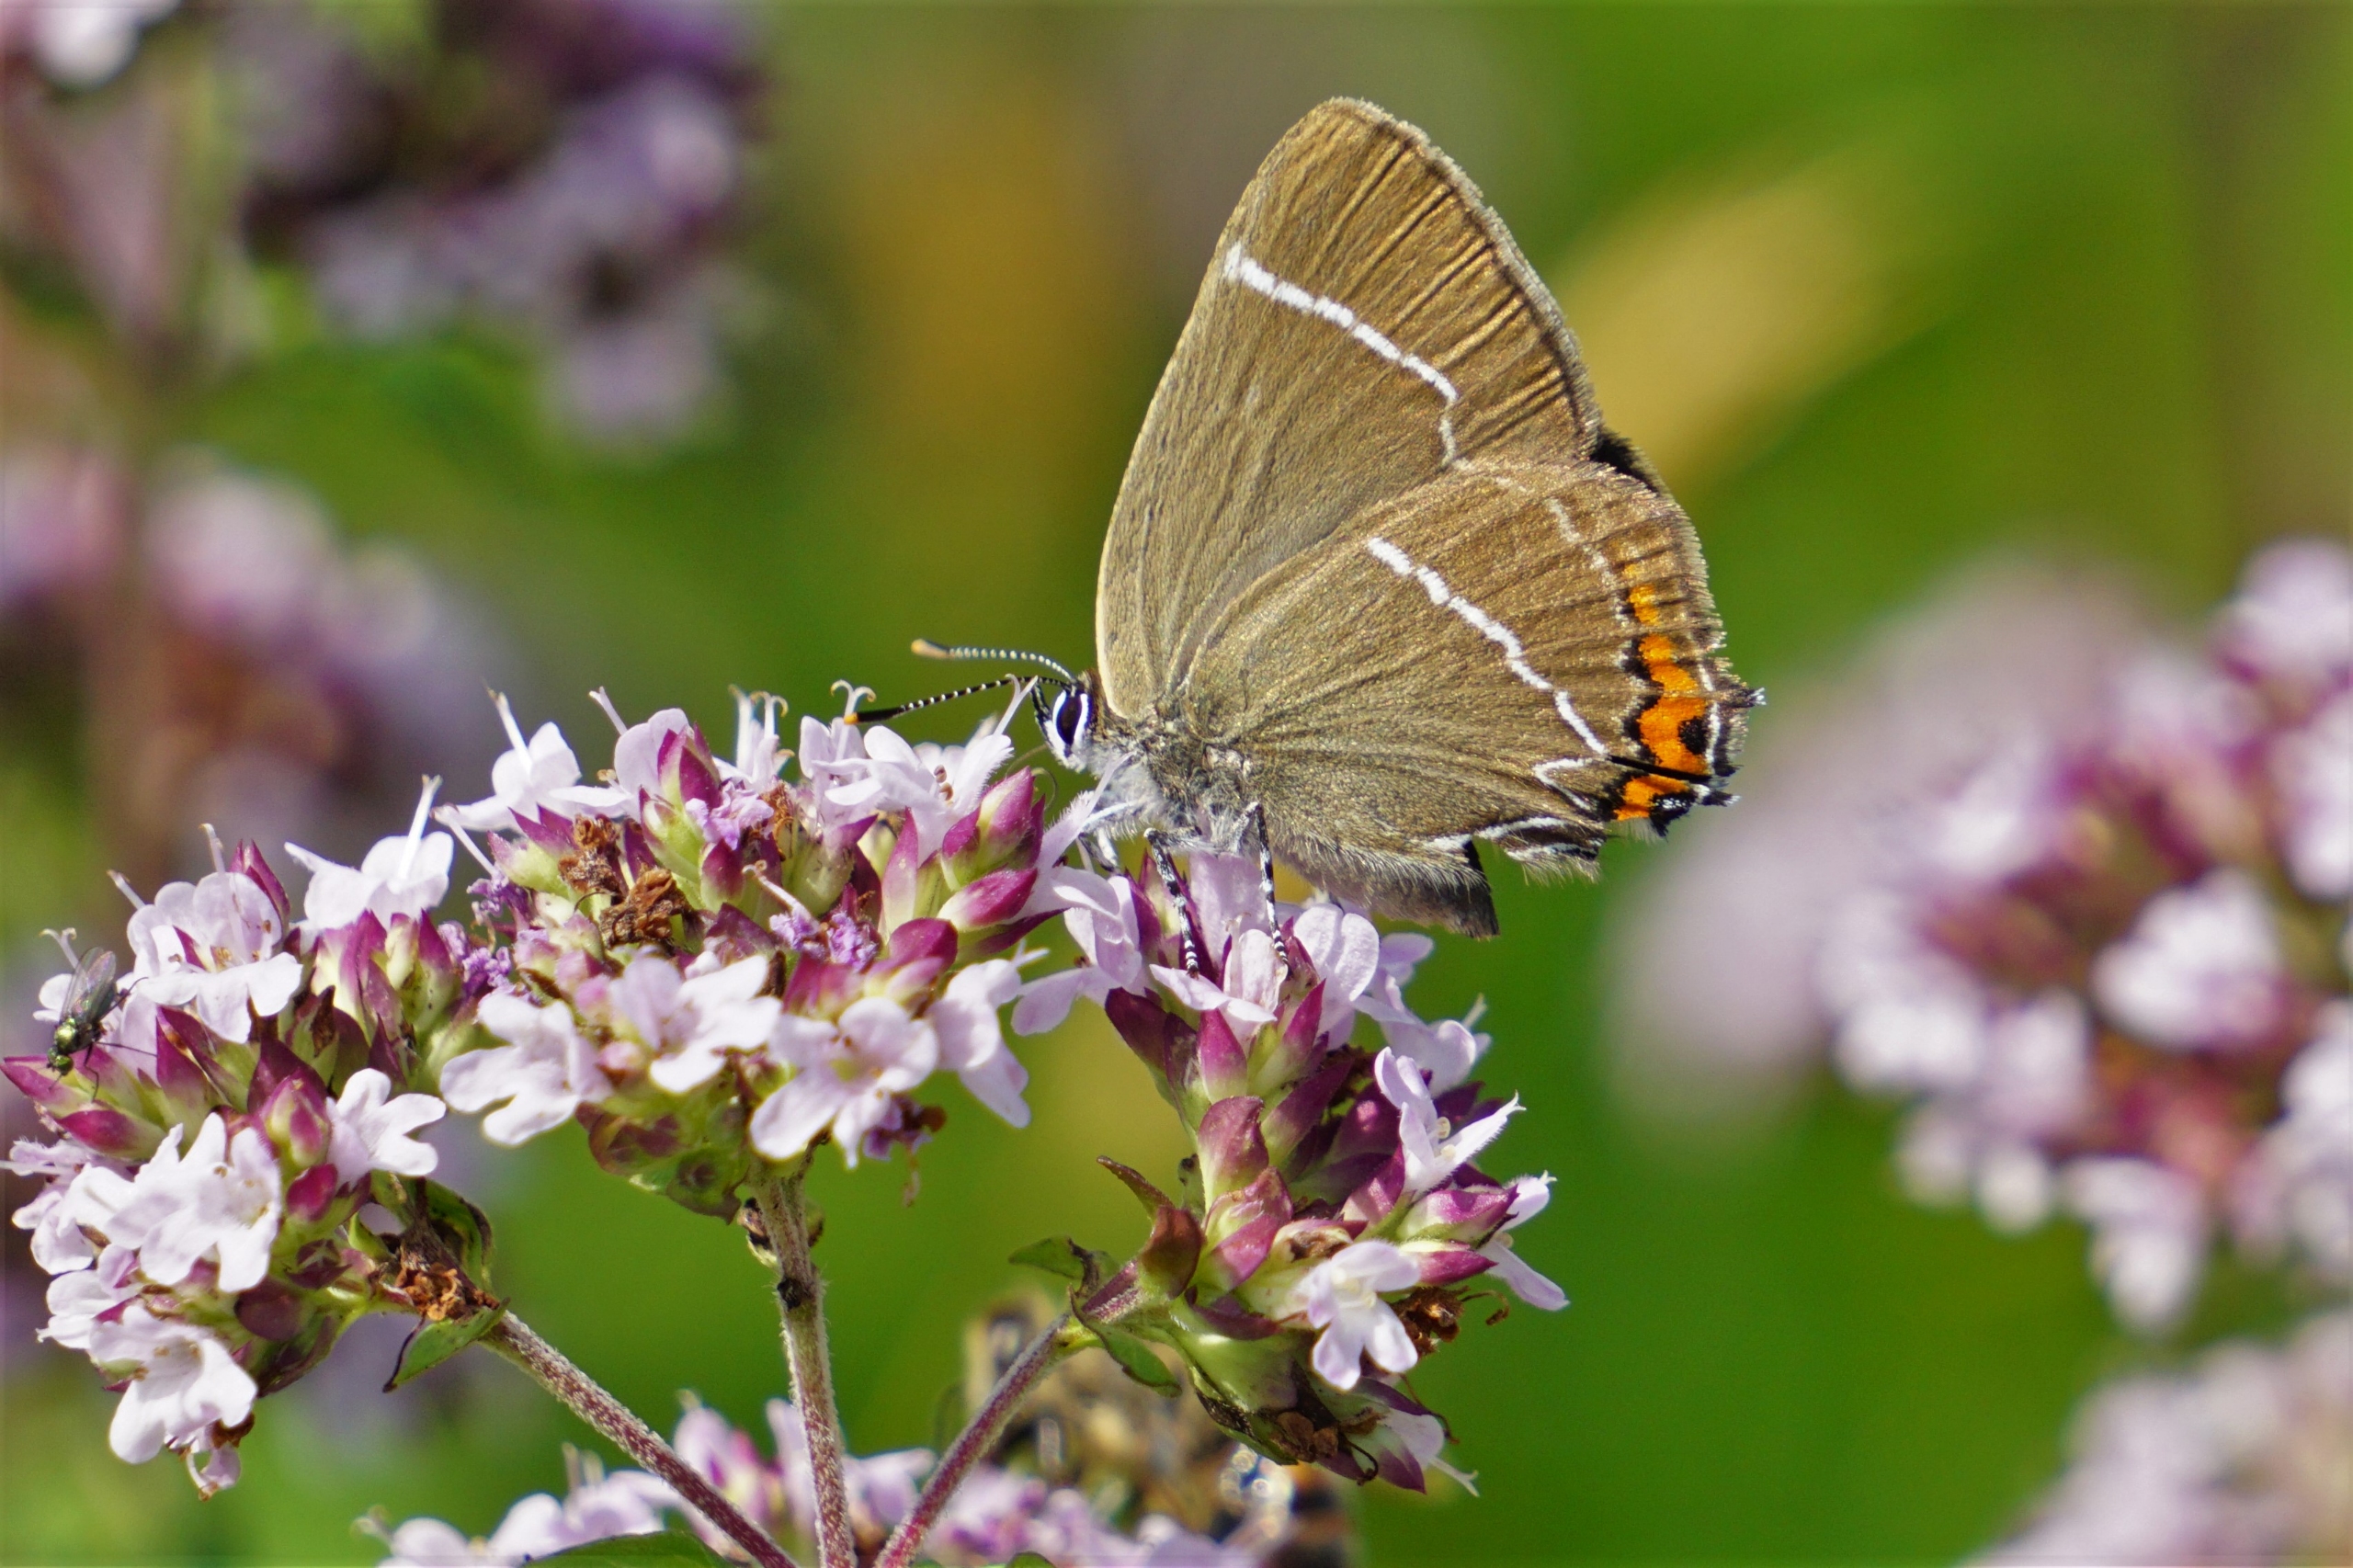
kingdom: Animalia
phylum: Arthropoda
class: Insecta
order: Lepidoptera
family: Lycaenidae
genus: Satyrium
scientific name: Satyrium w-album
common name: Det hvide W
